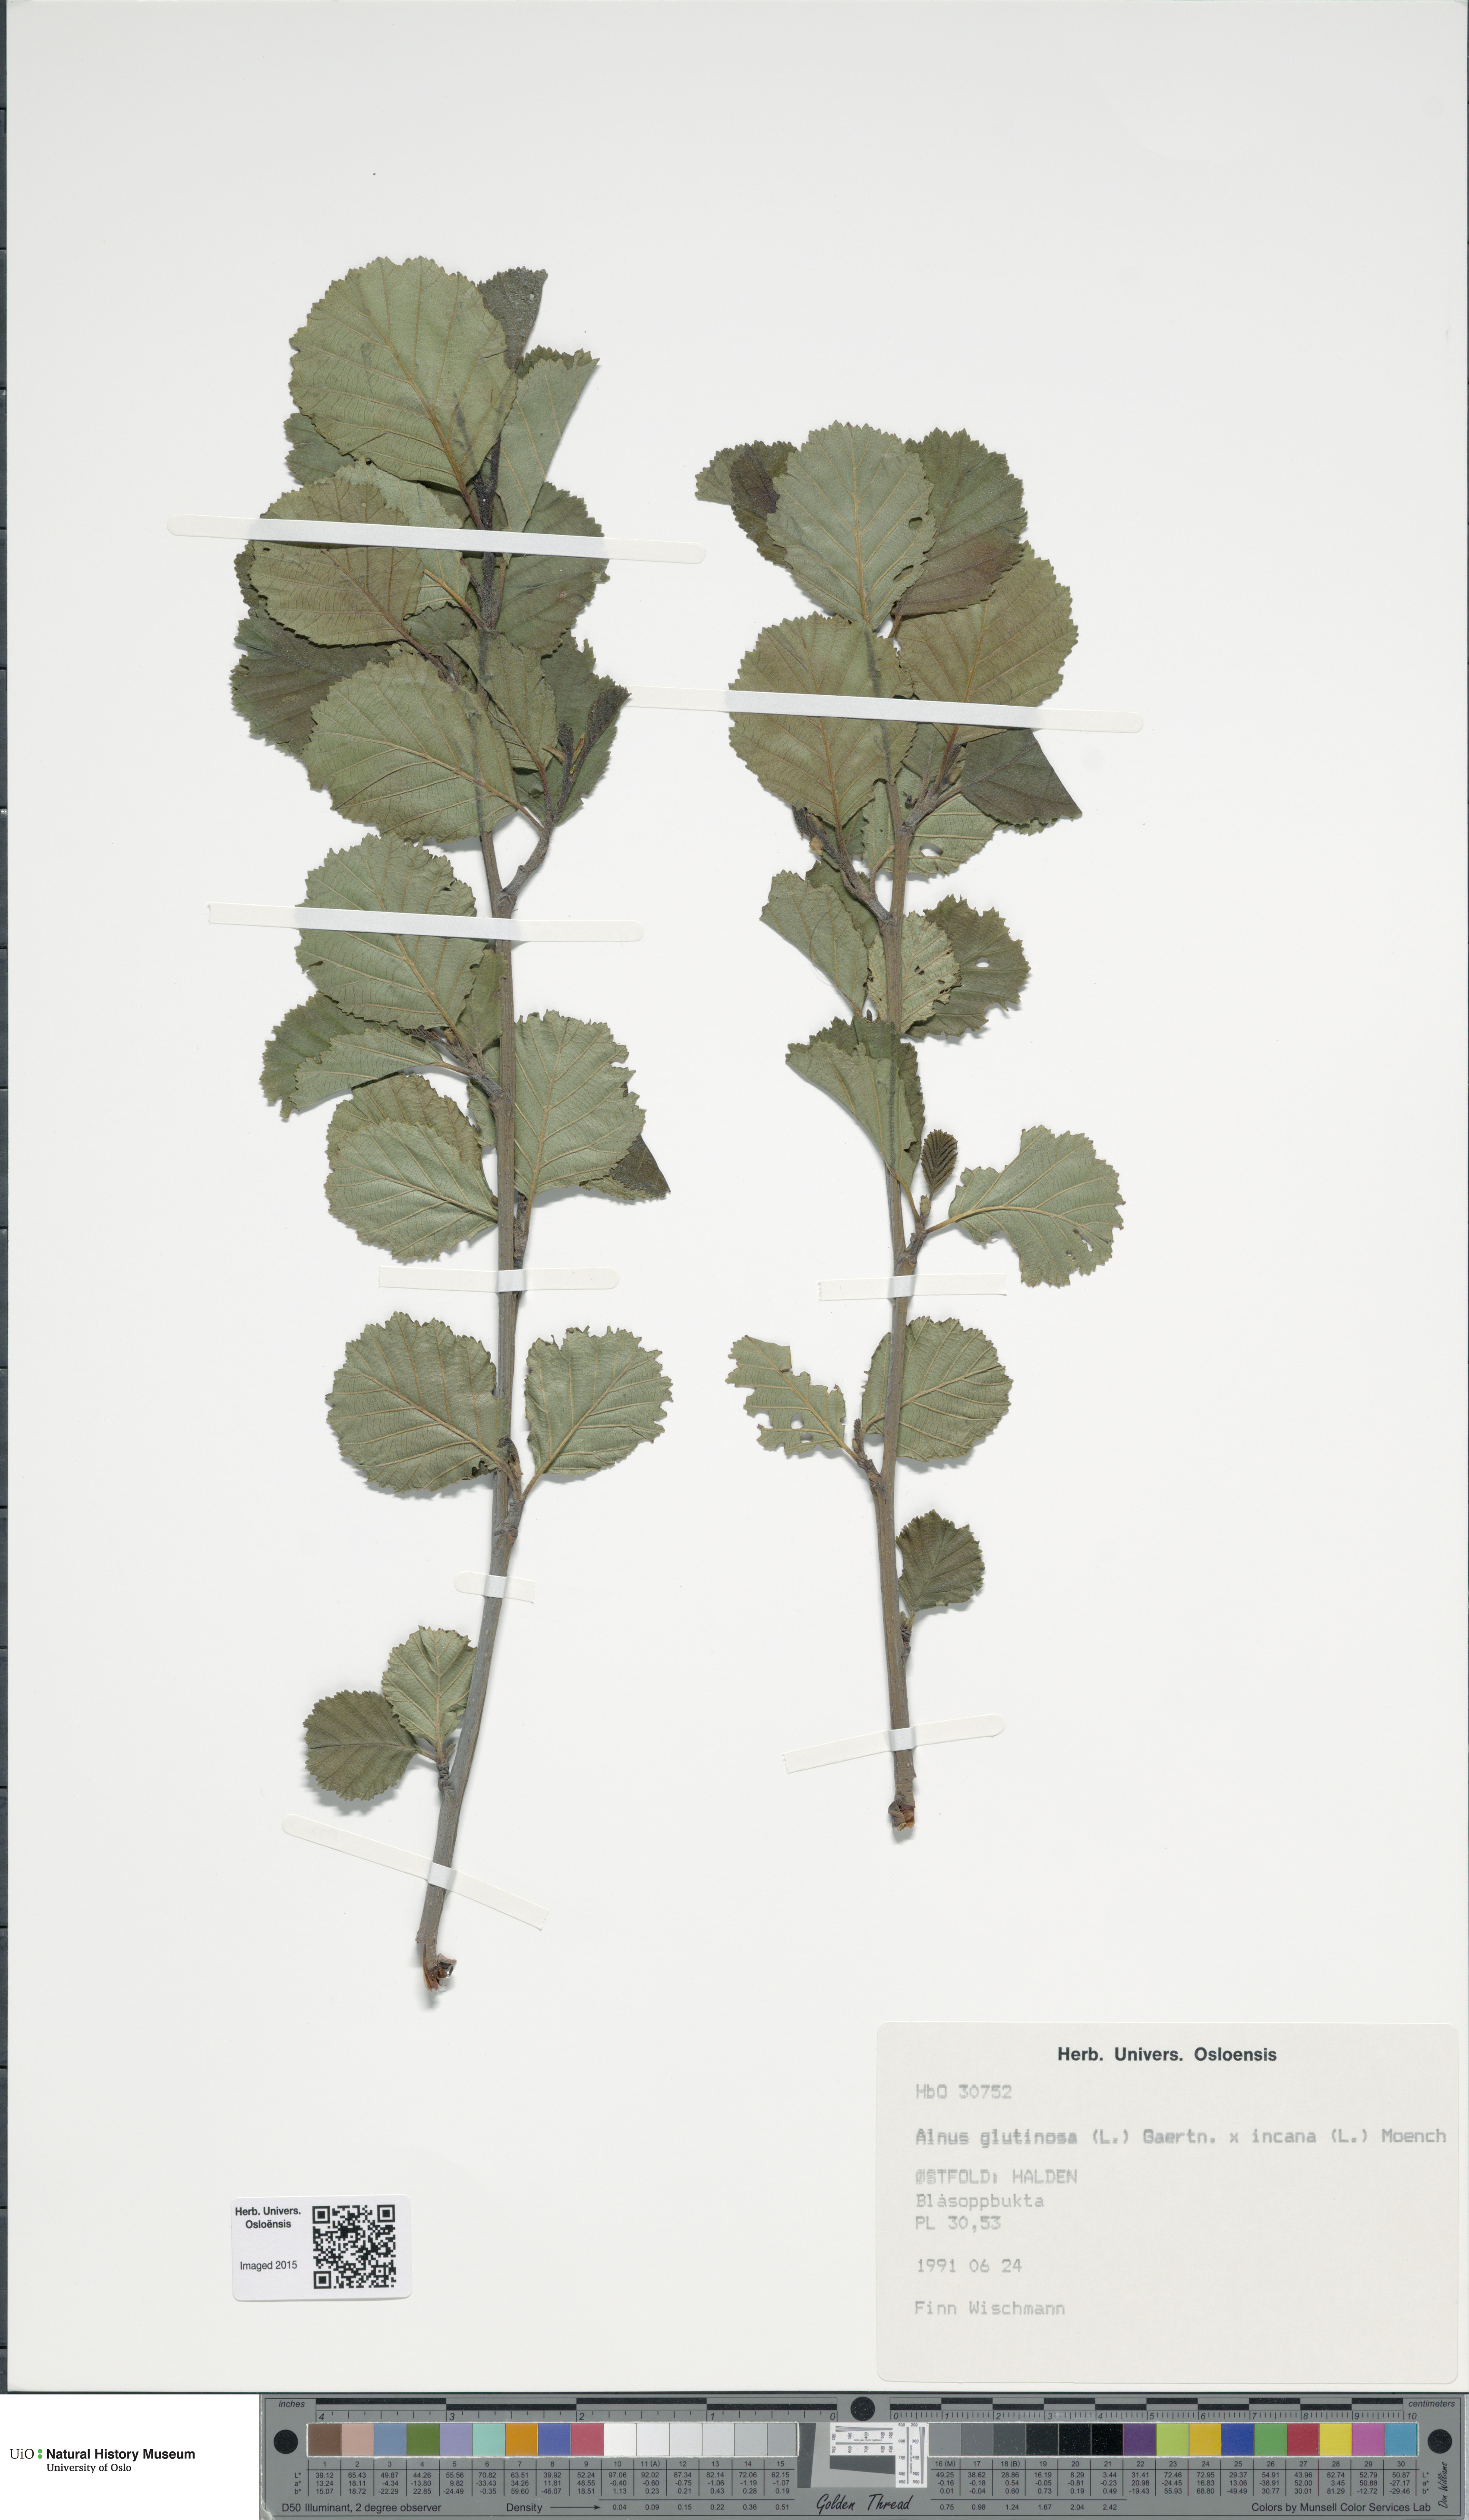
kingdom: Plantae
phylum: Tracheophyta
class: Magnoliopsida
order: Fagales
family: Betulaceae
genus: Alnus
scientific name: Alnus
